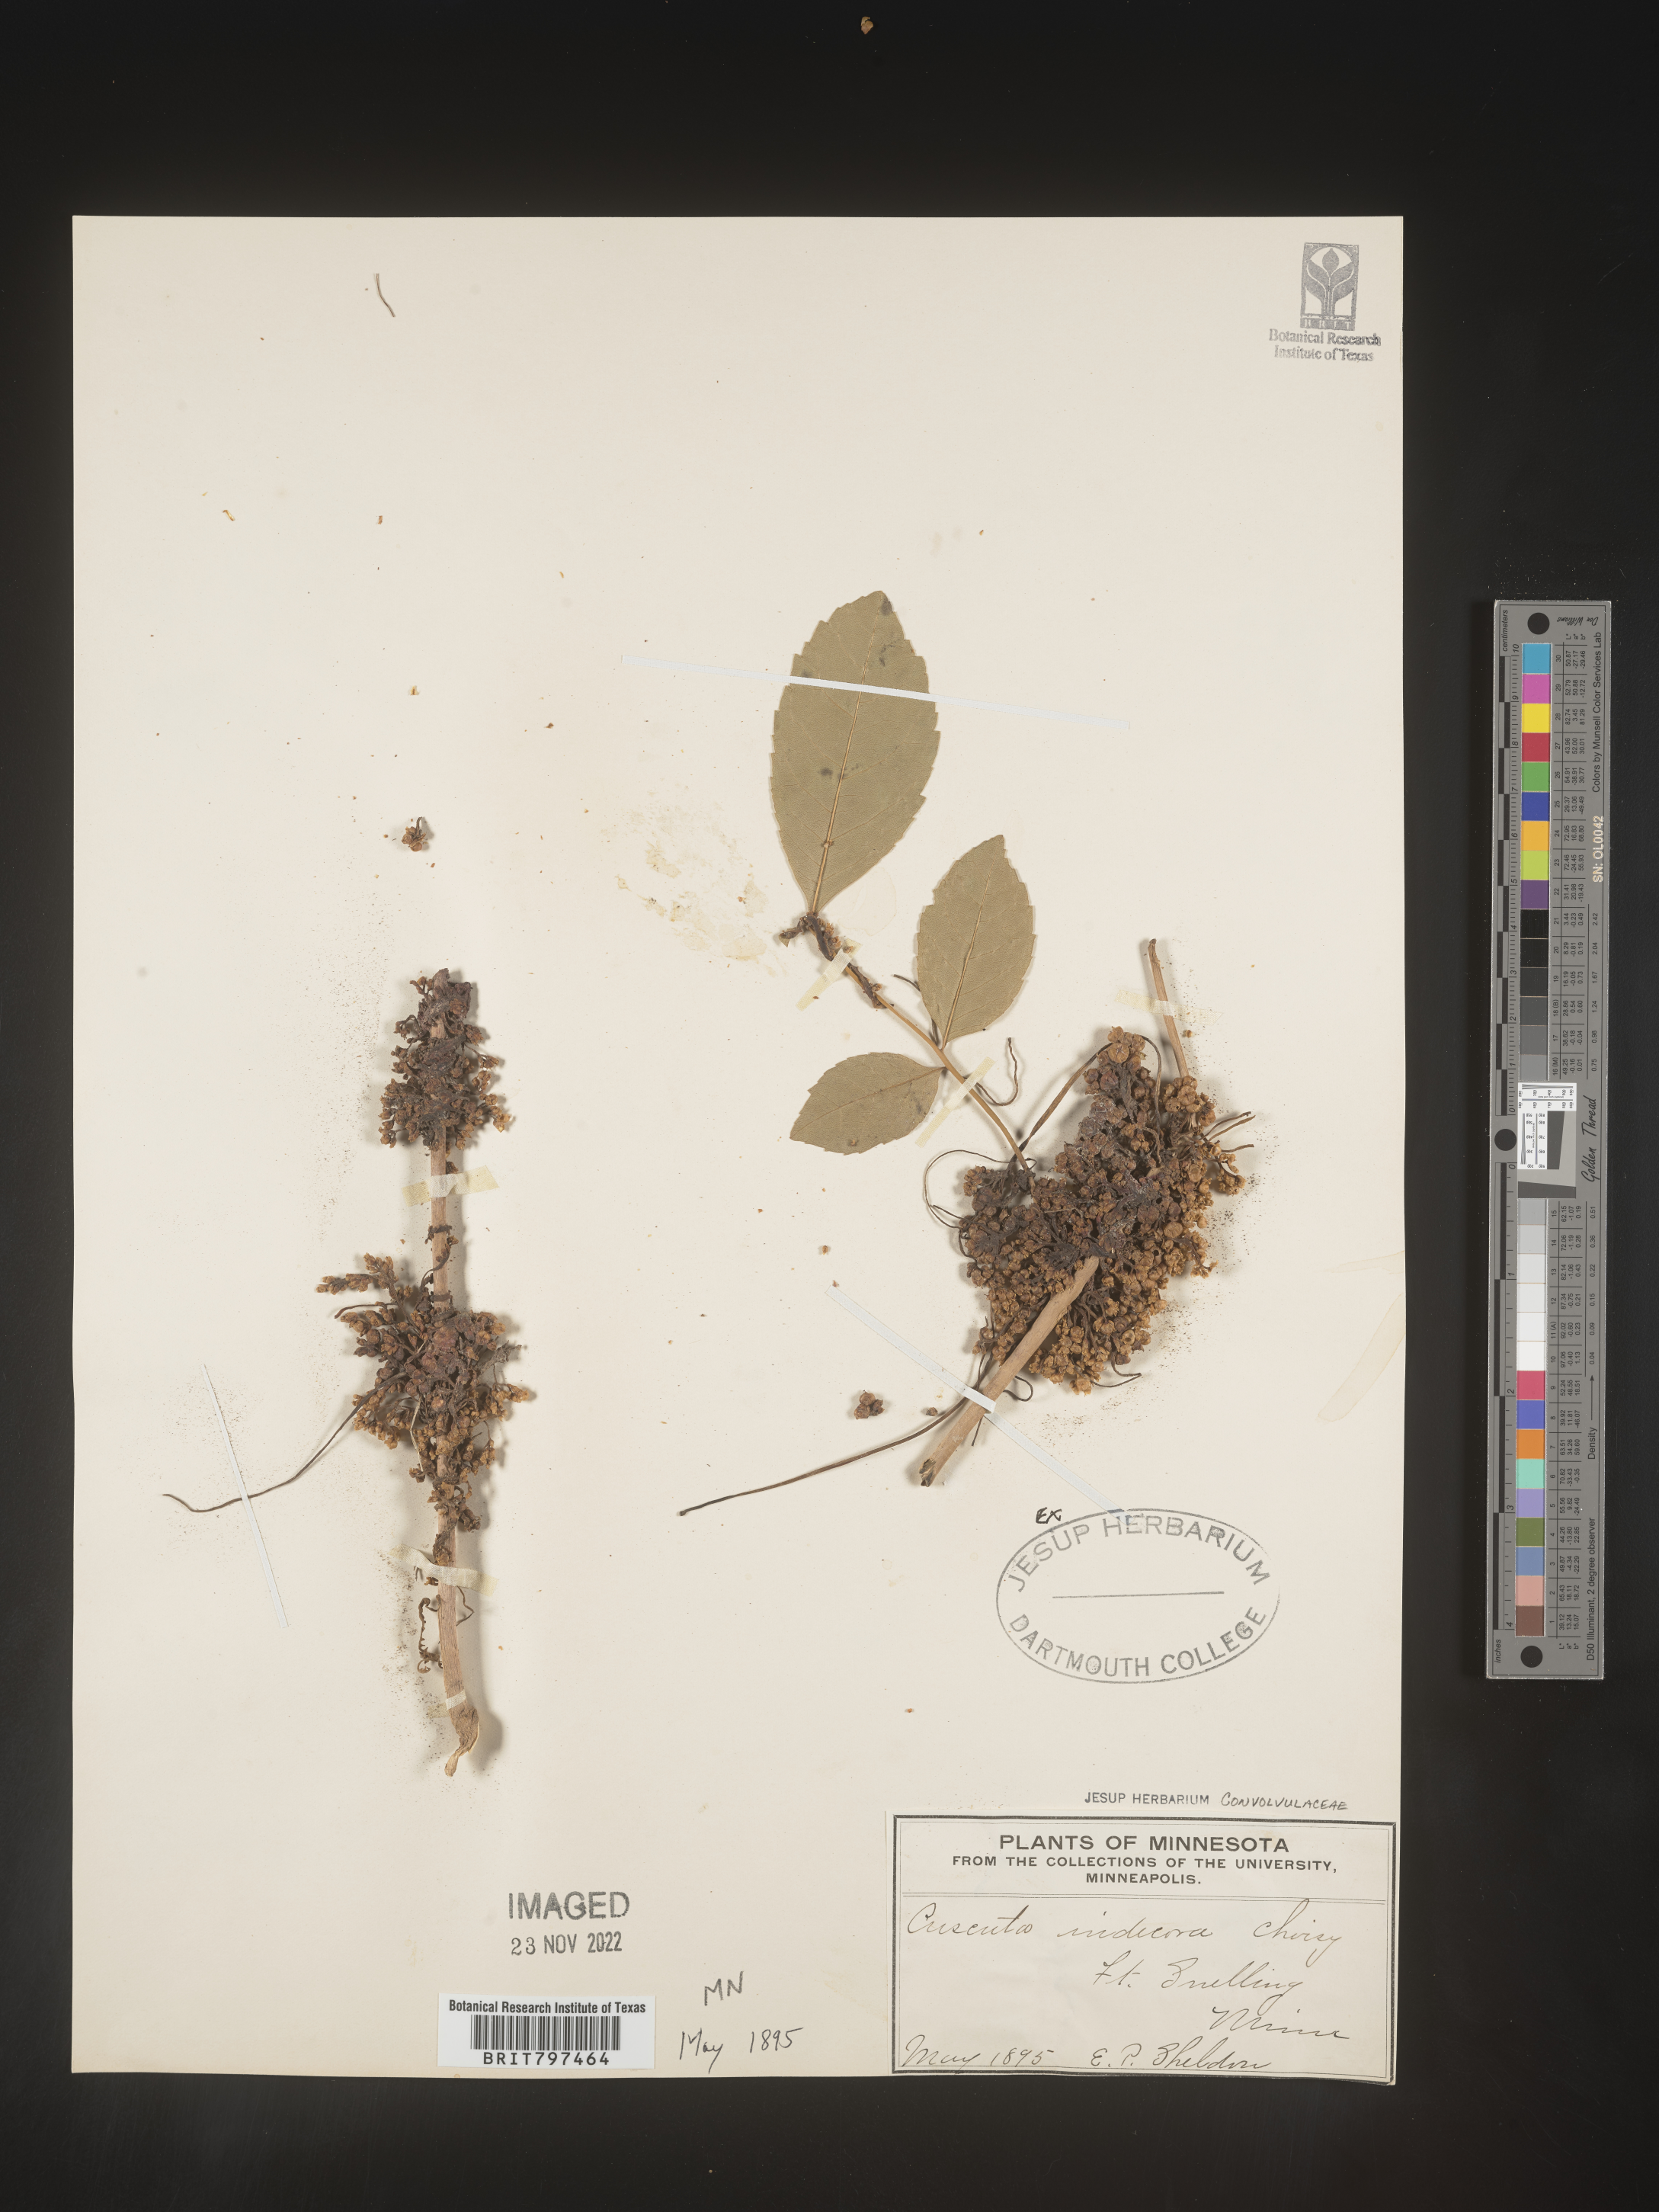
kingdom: Plantae
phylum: Tracheophyta
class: Magnoliopsida
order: Solanales
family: Convolvulaceae
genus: Cuscuta
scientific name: Cuscuta indecora
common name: Large-seed dodder
